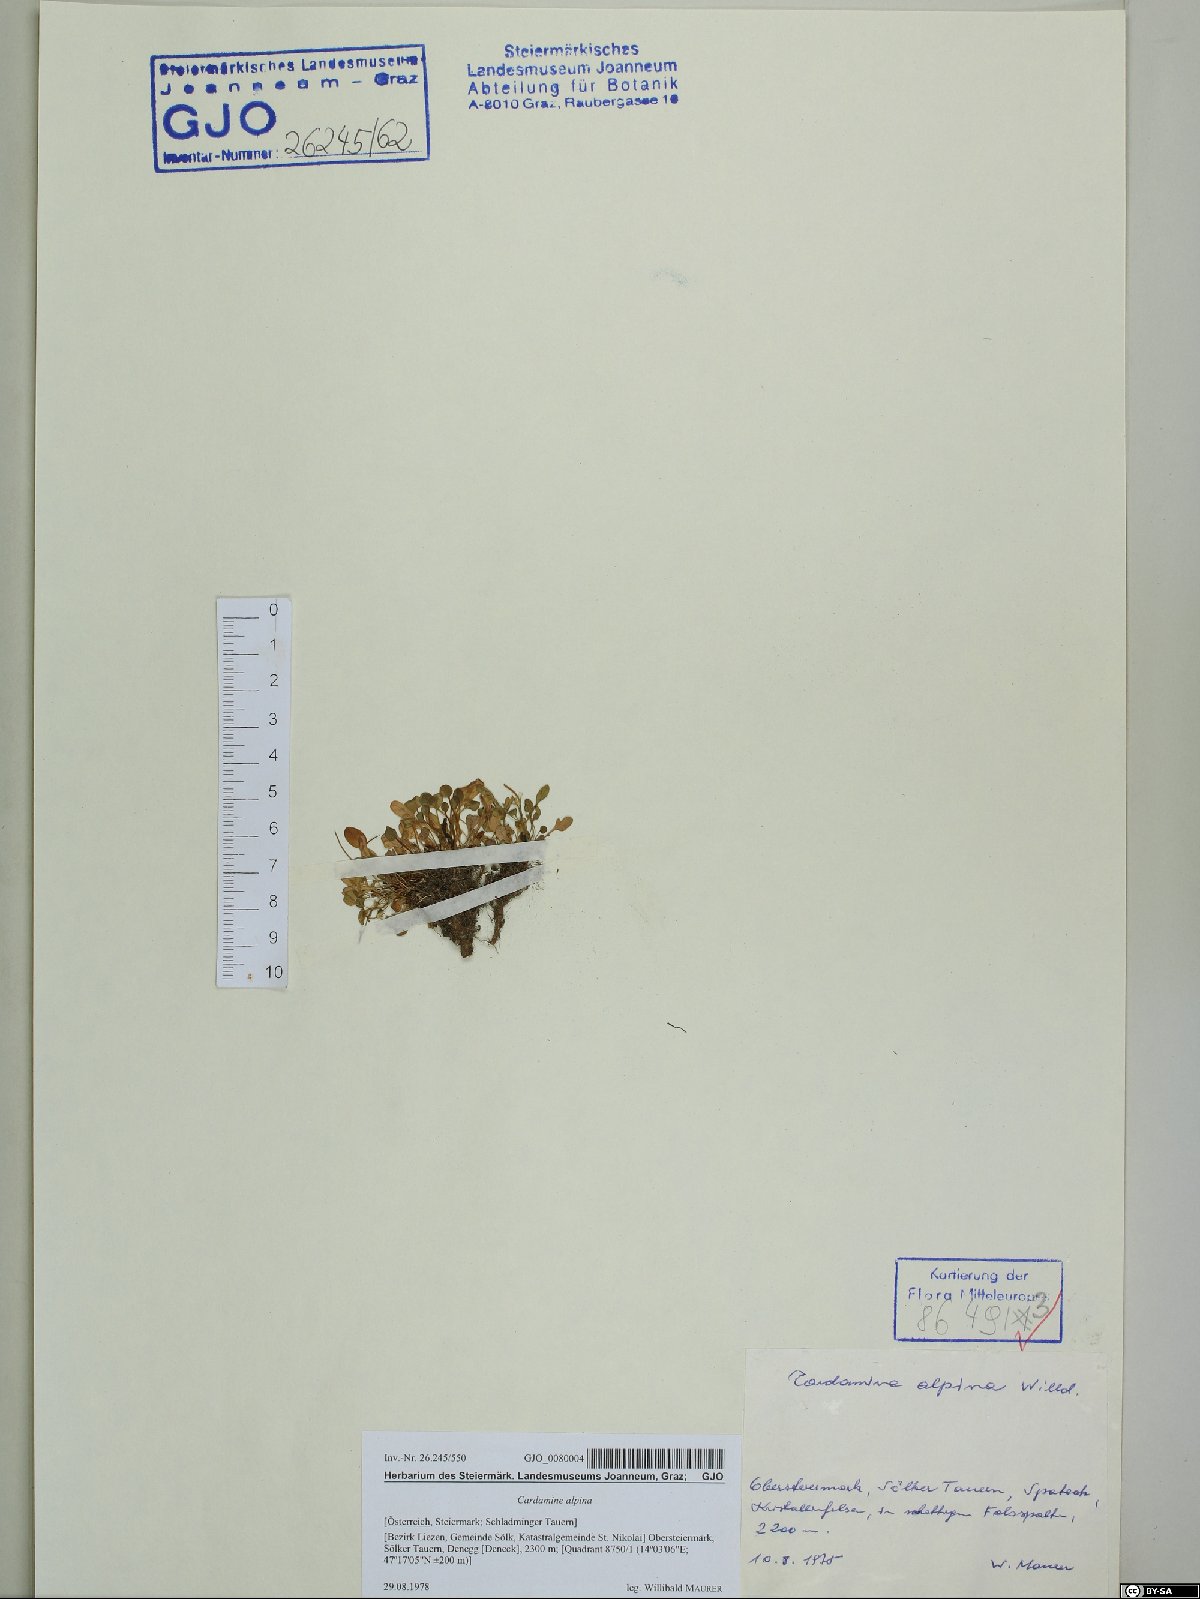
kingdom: Plantae
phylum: Tracheophyta
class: Magnoliopsida
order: Brassicales
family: Brassicaceae
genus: Cardamine
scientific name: Cardamine bellidifolia
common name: Alpine bittercress
